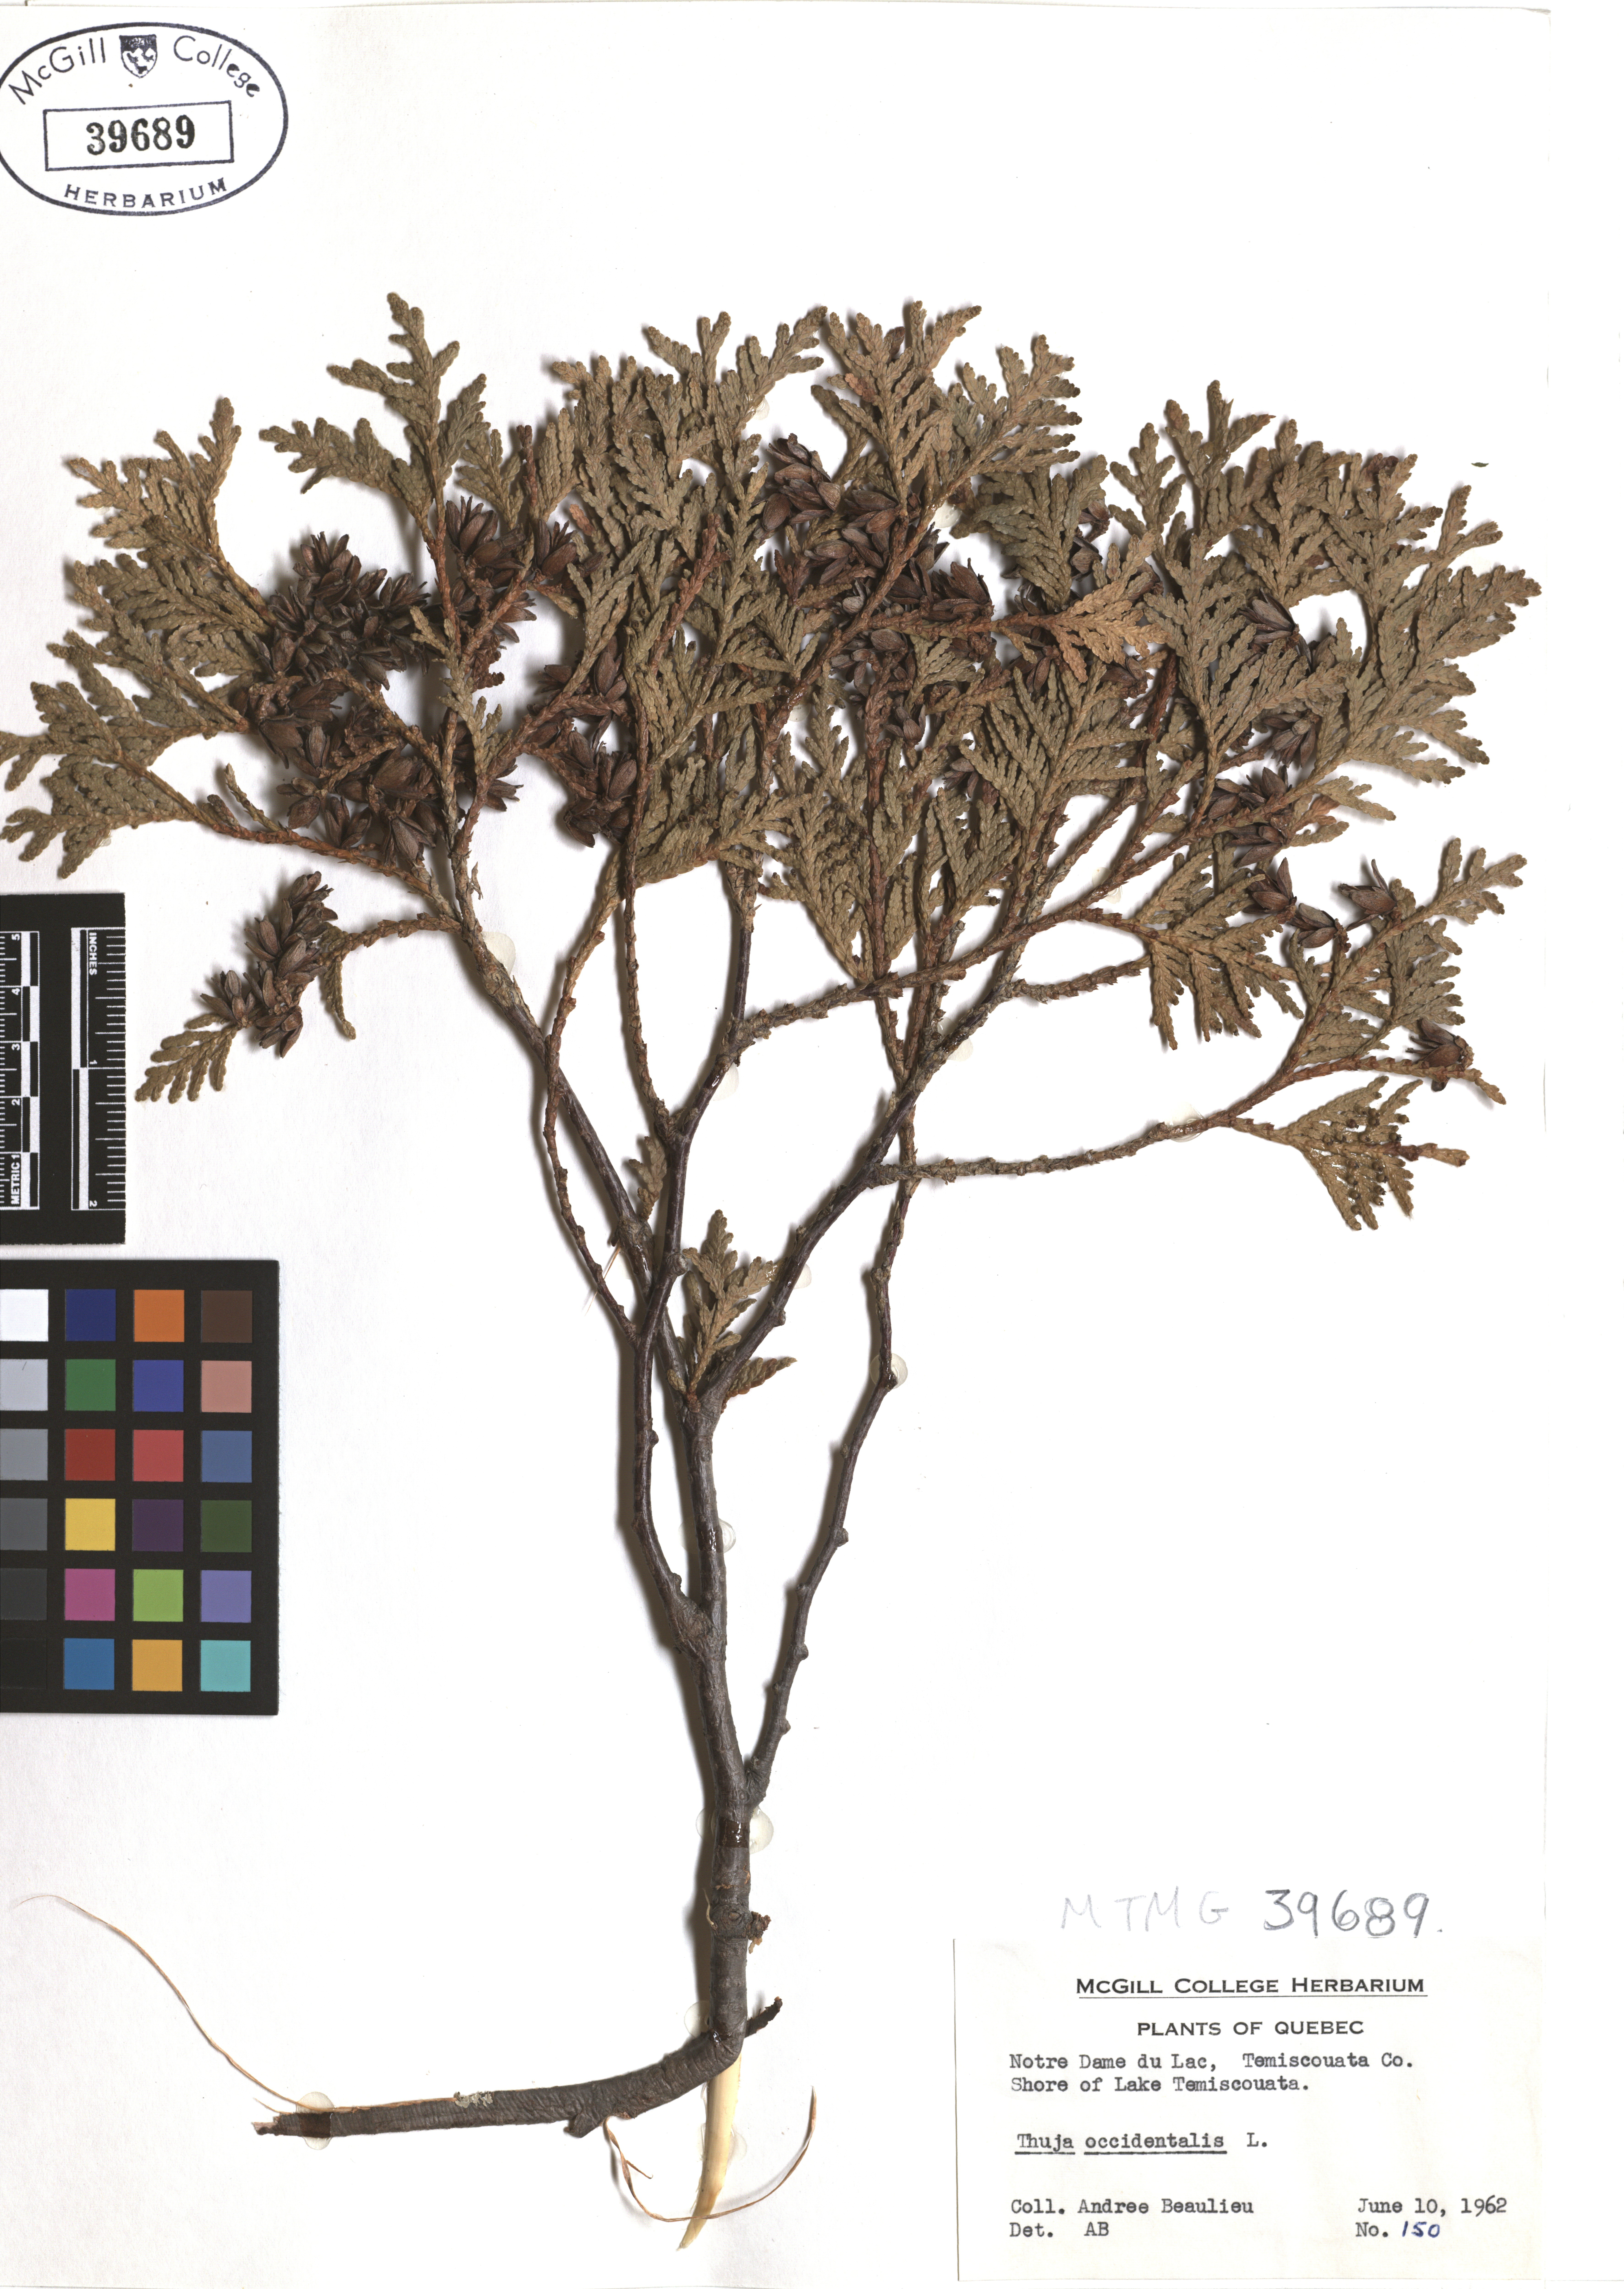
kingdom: Plantae
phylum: Tracheophyta
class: Pinopsida
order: Pinales
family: Cupressaceae
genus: Thuja
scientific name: Thuja occidentalis
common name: Northern white-cedar
